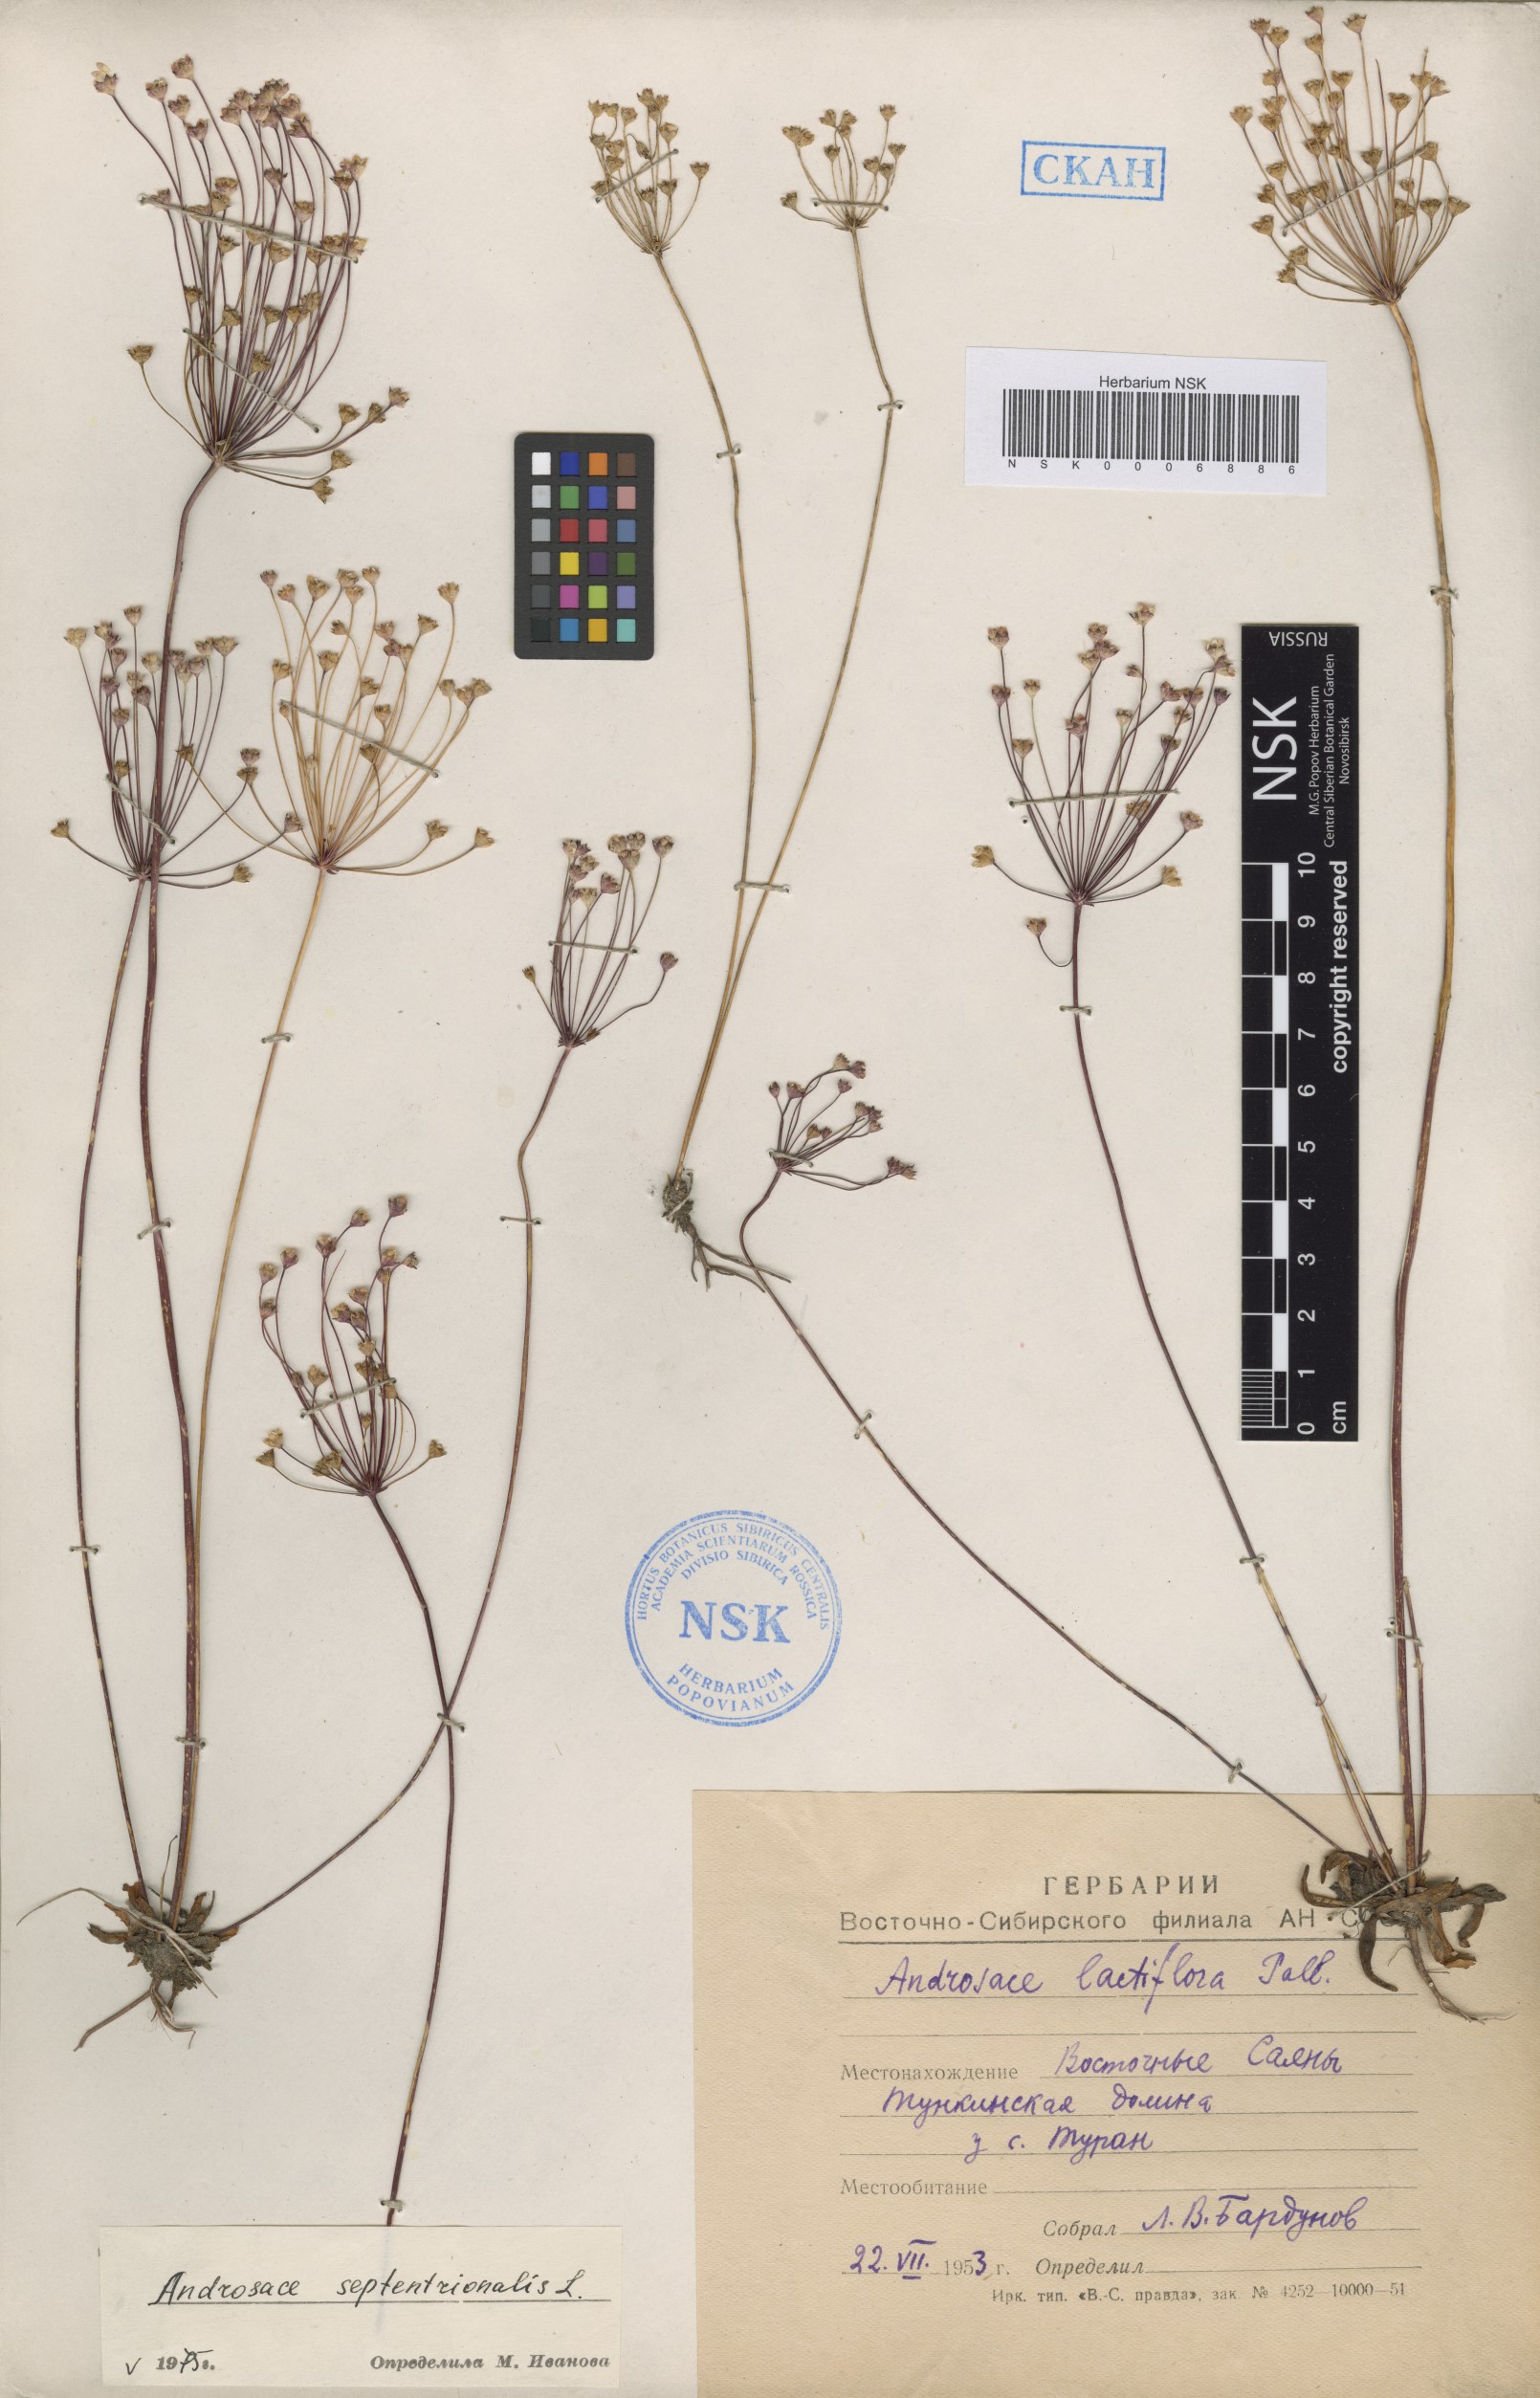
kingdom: Plantae
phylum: Tracheophyta
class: Magnoliopsida
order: Ericales
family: Primulaceae
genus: Androsace
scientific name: Androsace septentrionalis
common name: Hairy northern fairy-candelabra
